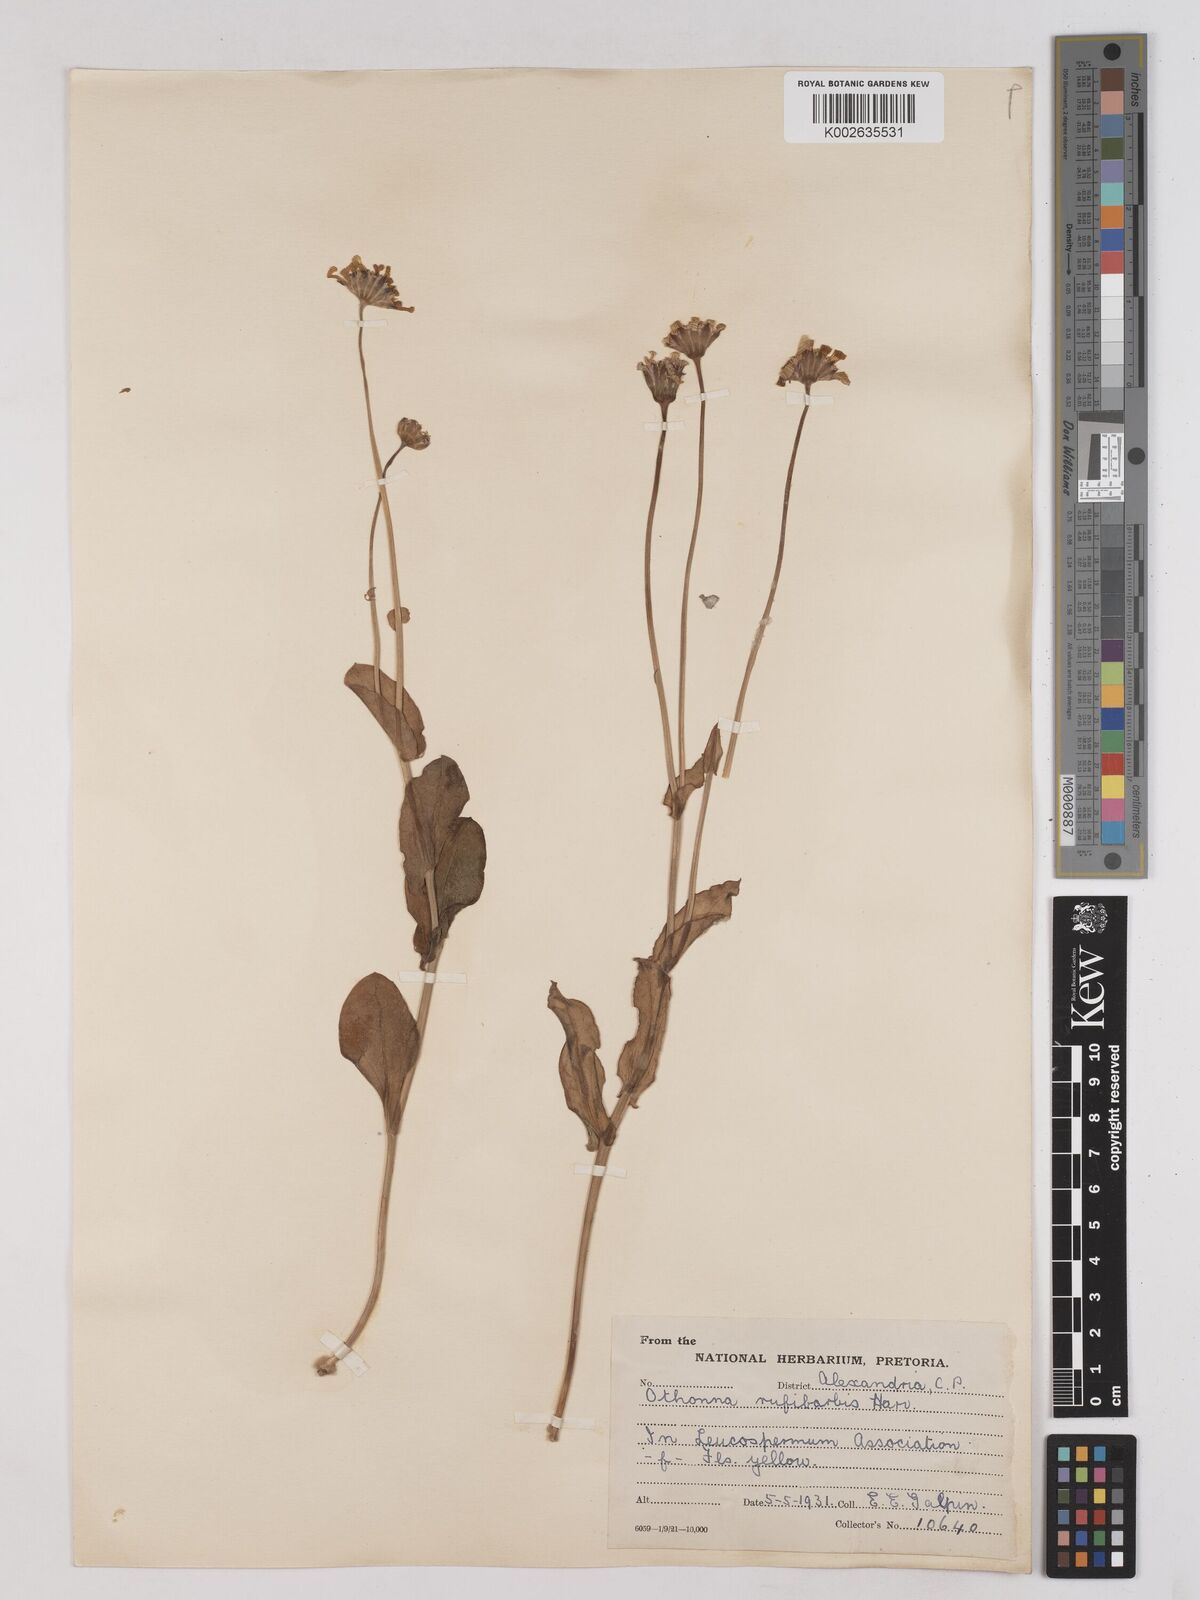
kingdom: Plantae
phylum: Tracheophyta
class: Magnoliopsida
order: Asterales
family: Asteraceae
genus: Othonna
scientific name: Othonna rufibarbis
